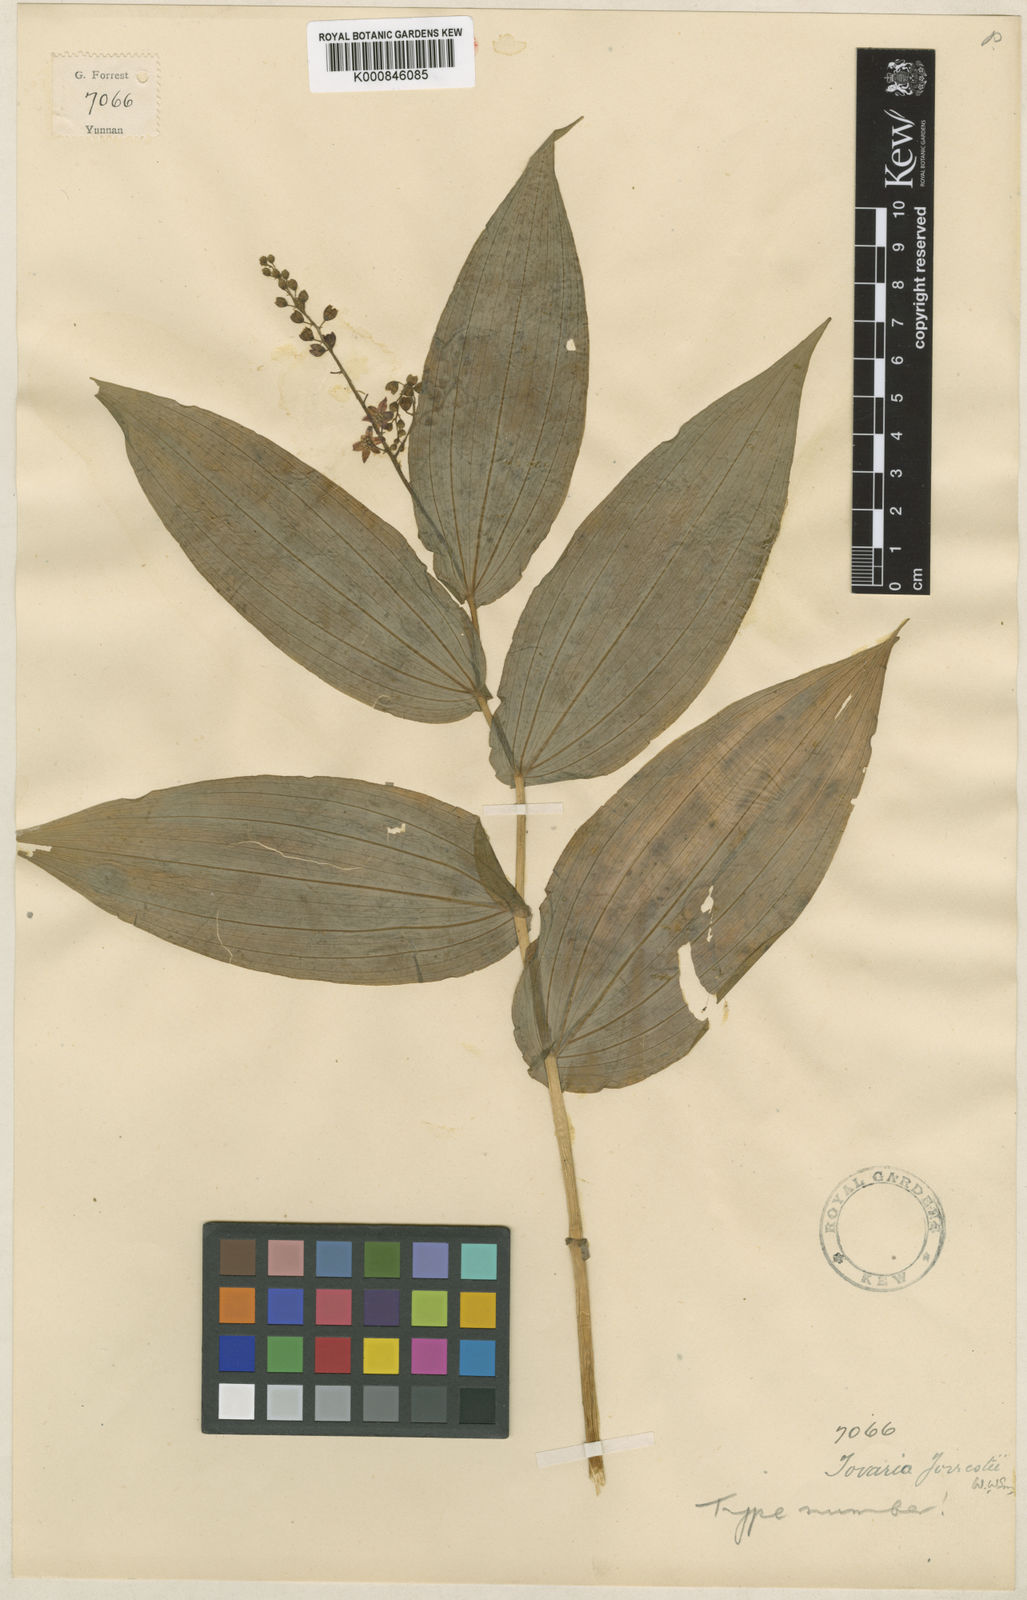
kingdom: Plantae
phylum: Tracheophyta
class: Liliopsida
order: Asparagales
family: Asparagaceae
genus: Maianthemum
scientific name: Maianthemum forrestii
